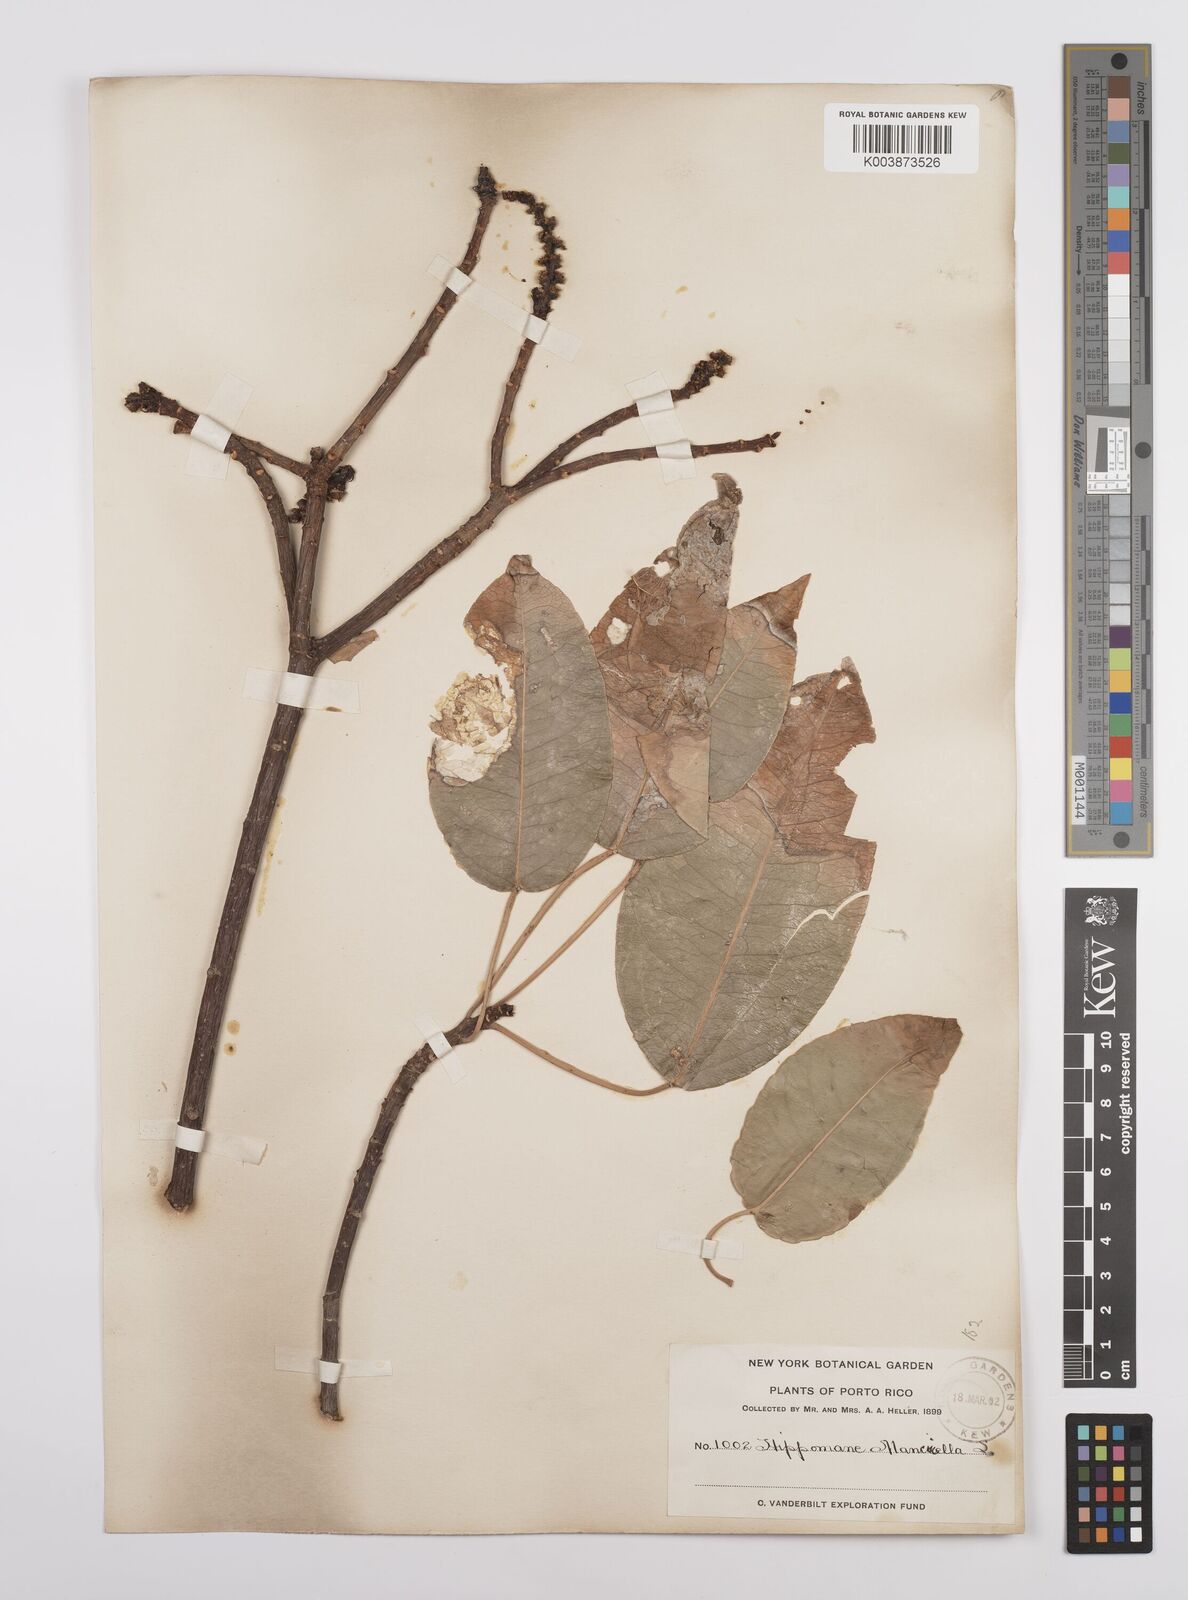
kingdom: Plantae
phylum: Tracheophyta
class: Magnoliopsida
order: Malpighiales
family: Euphorbiaceae
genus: Hippomane
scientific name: Hippomane mancinella
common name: Manchineel
